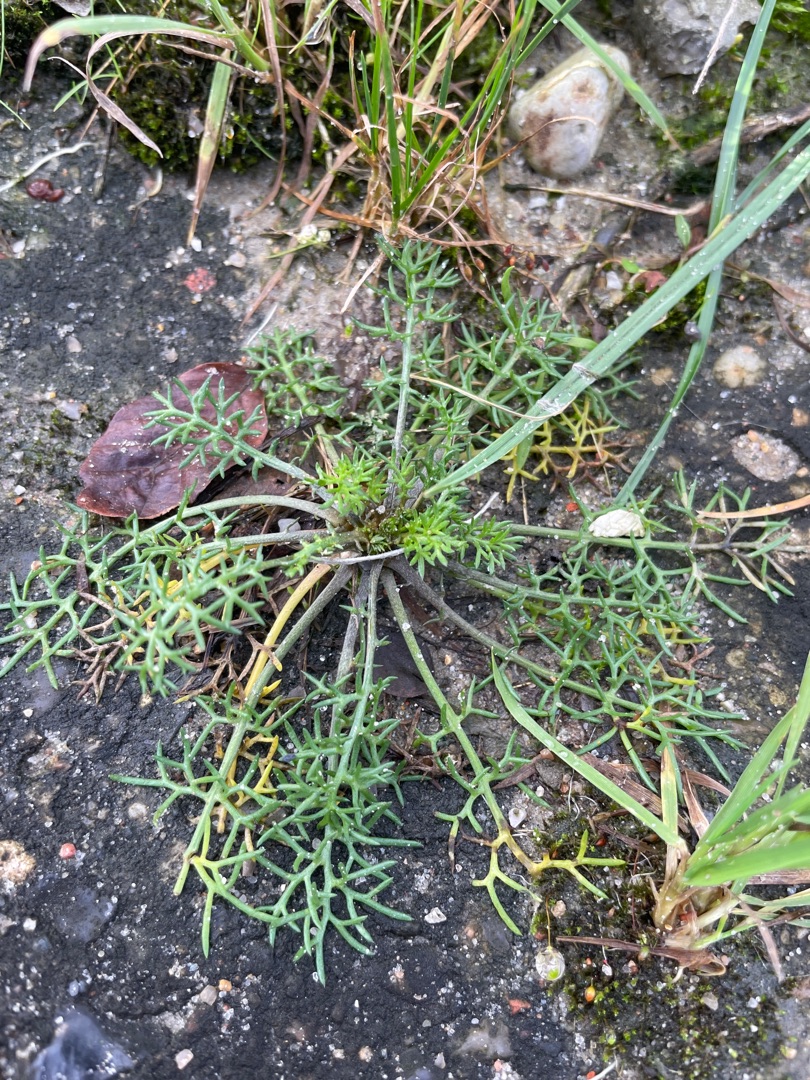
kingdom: Plantae
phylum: Tracheophyta
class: Magnoliopsida
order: Asterales
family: Asteraceae
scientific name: Asteraceae
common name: Kurvblomstfamilien
